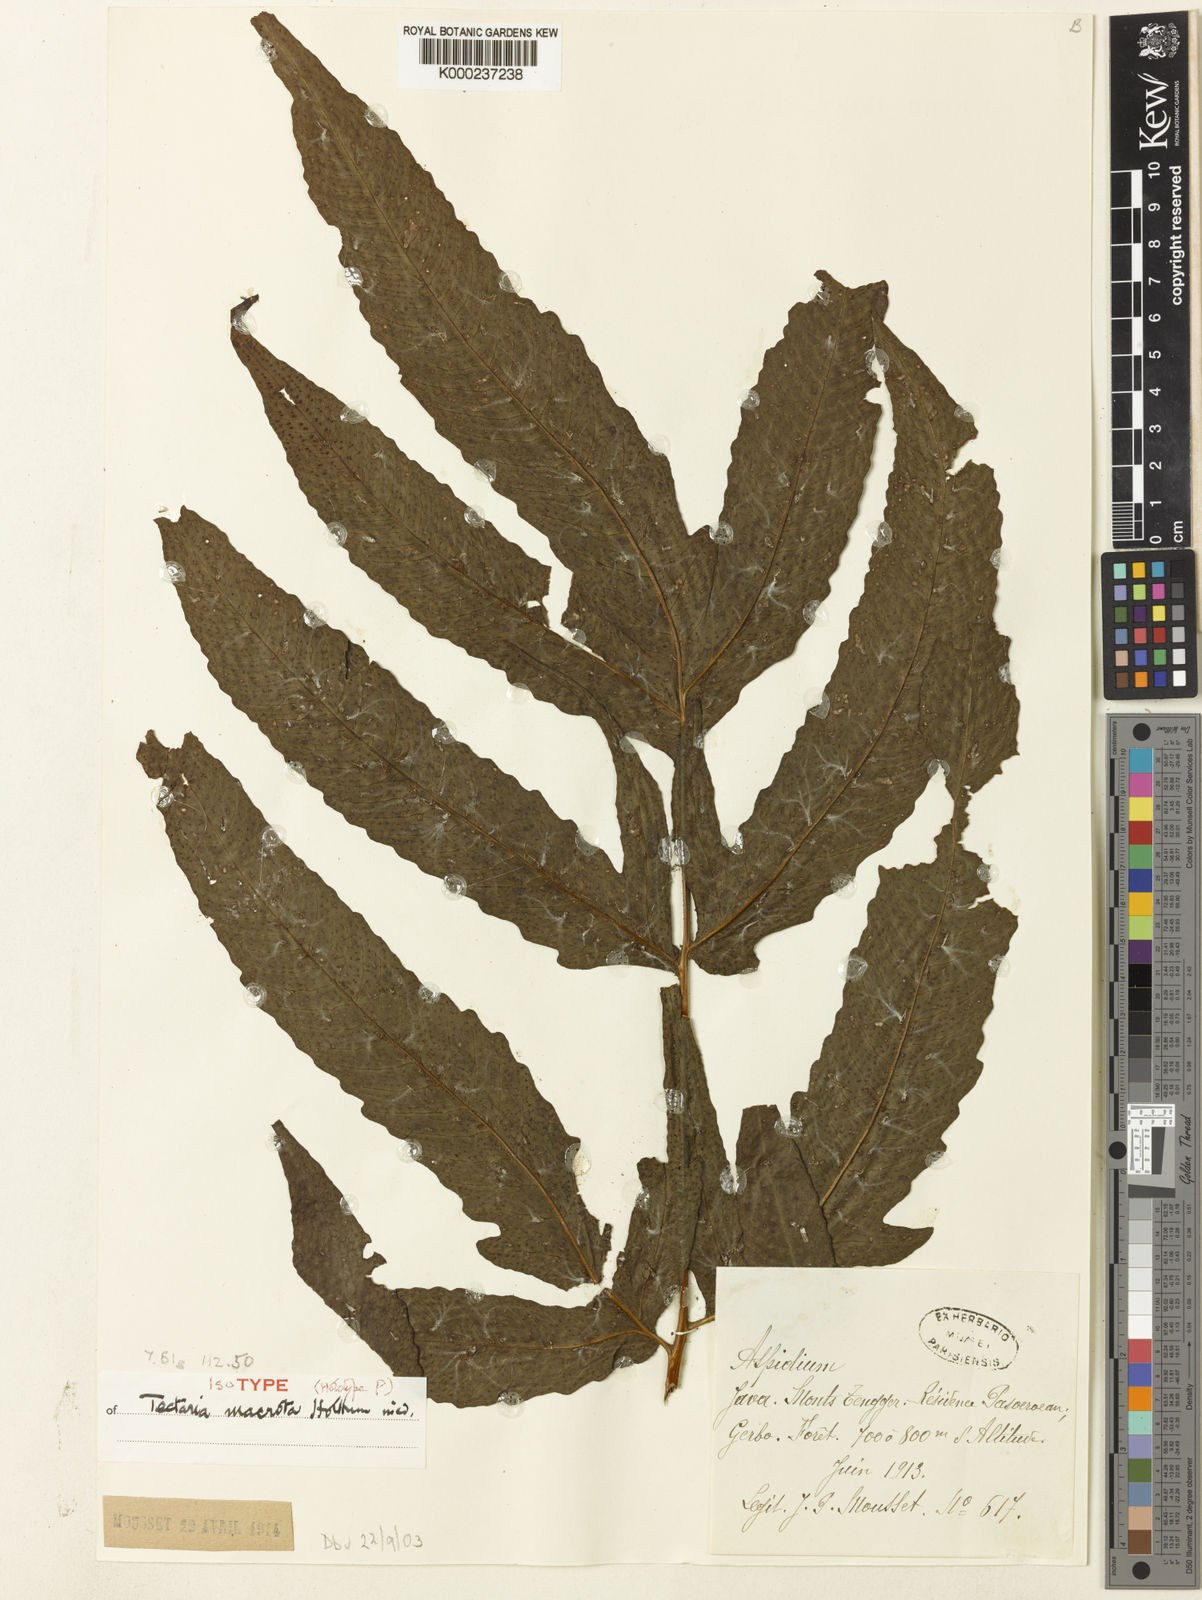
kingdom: Plantae
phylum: Tracheophyta
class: Polypodiopsida
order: Polypodiales
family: Tectariaceae
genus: Tectaria
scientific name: Tectaria macrota
